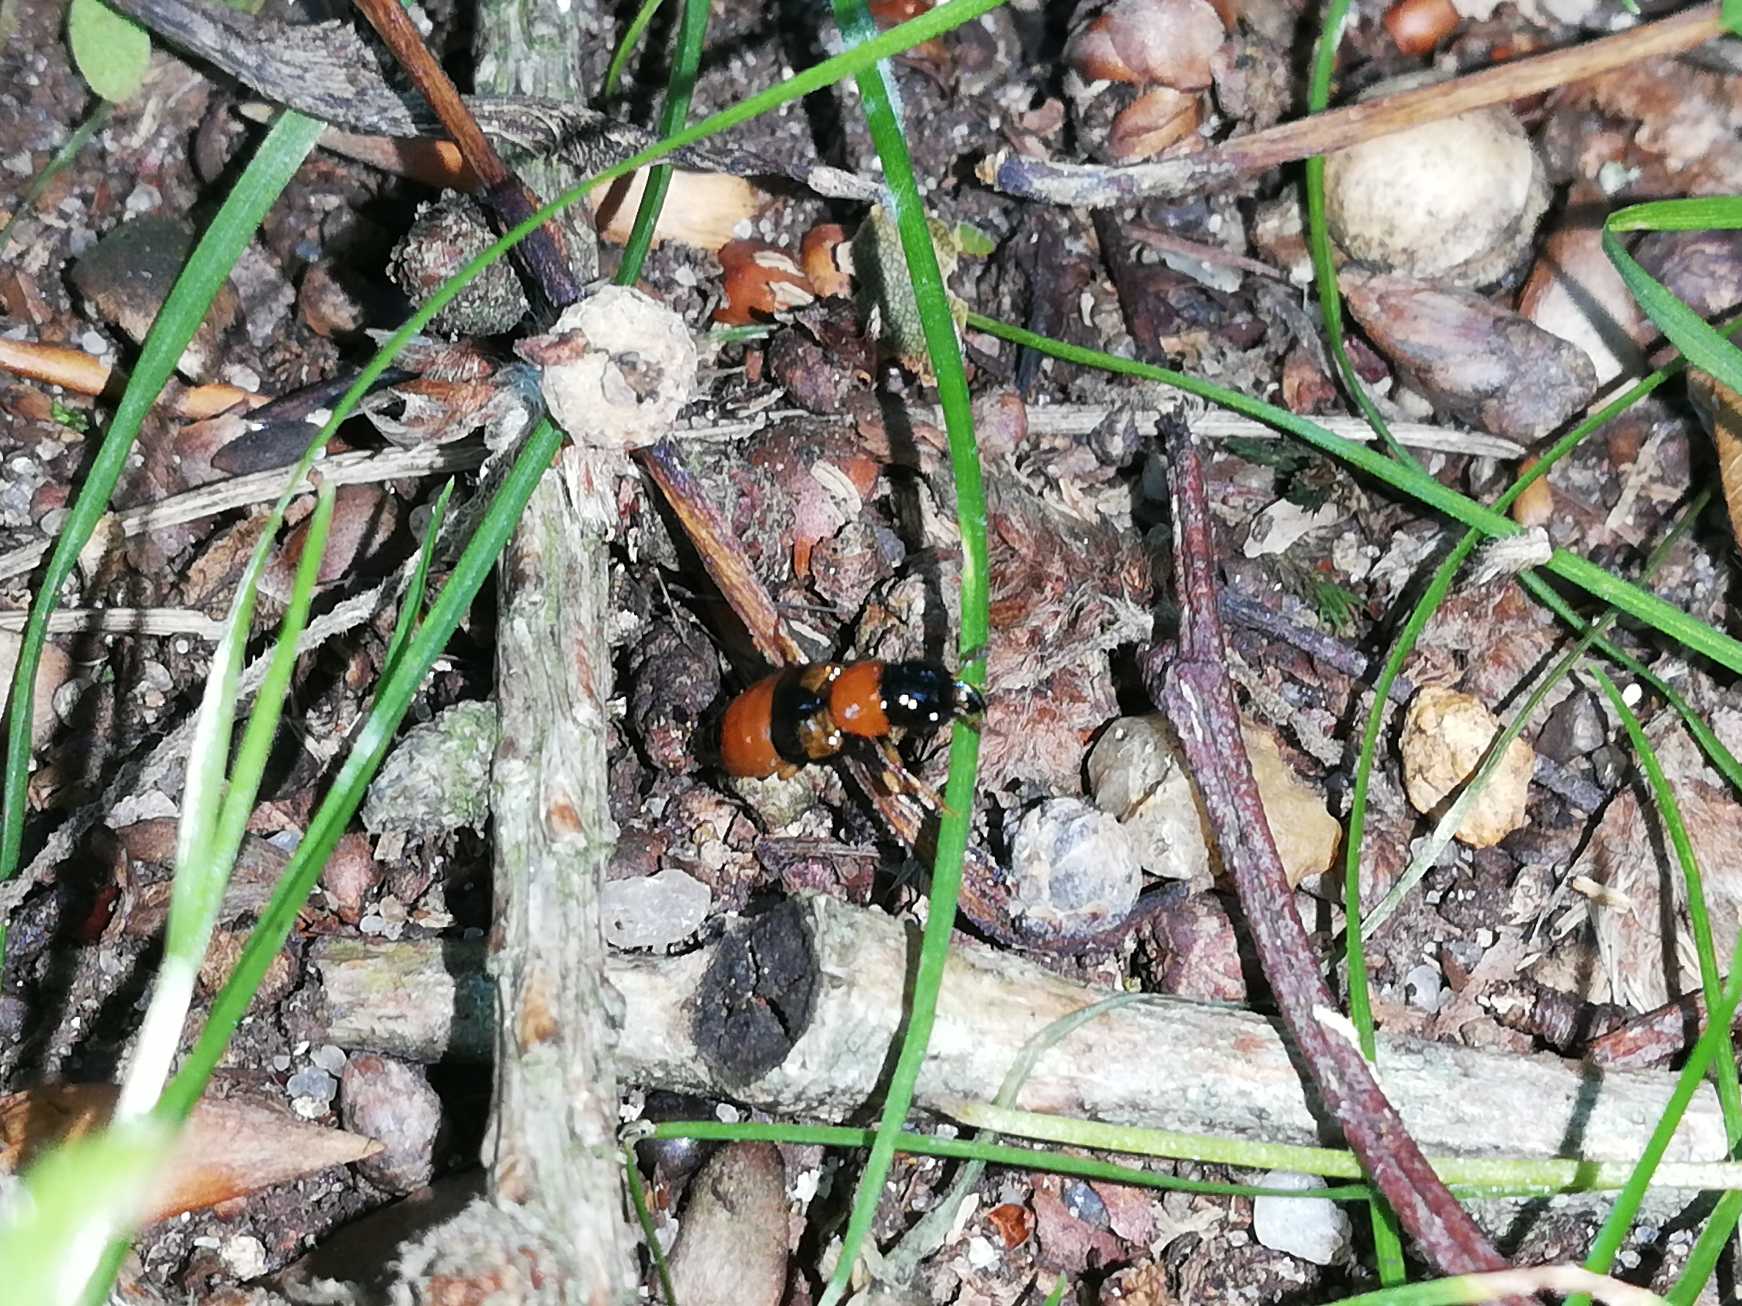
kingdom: Animalia
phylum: Arthropoda
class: Insecta
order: Coleoptera
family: Staphylinidae
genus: Oxyporus
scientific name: Oxyporus rufus
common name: Ildrovbille
